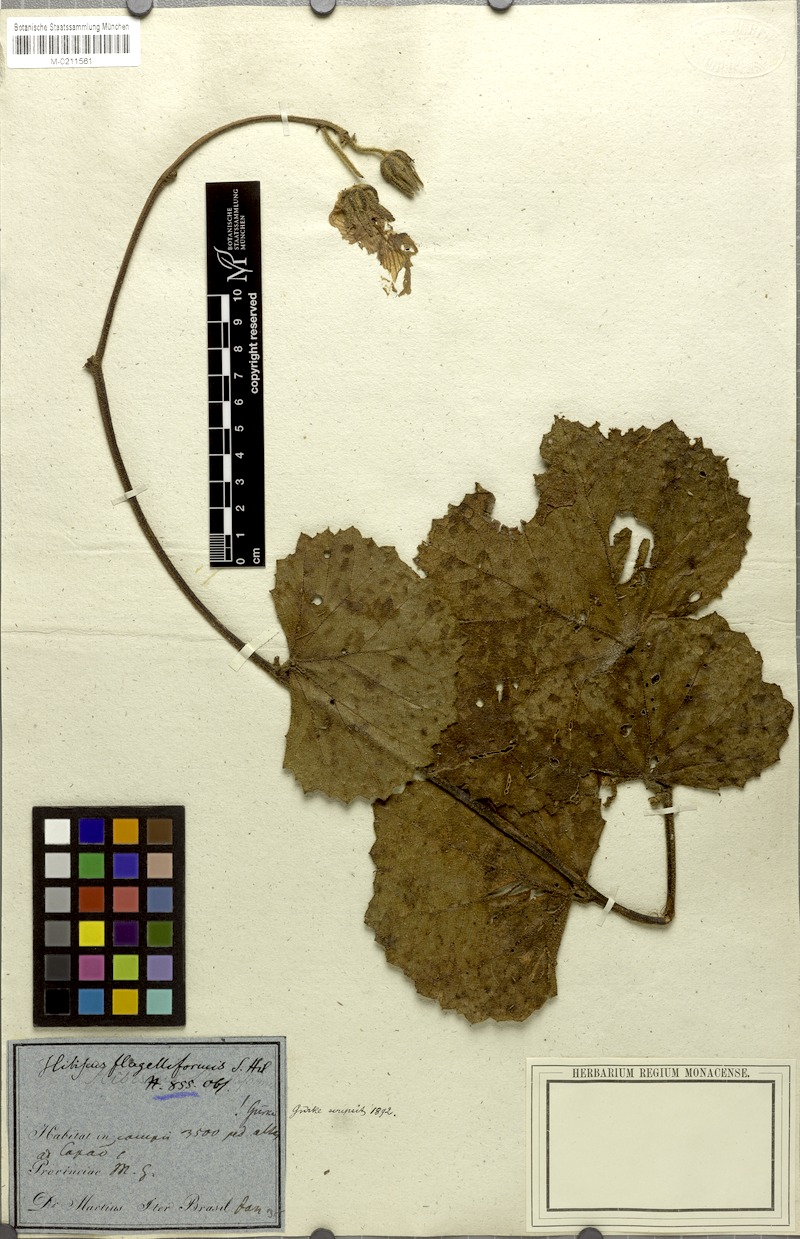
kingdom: Plantae
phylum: Tracheophyta
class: Magnoliopsida
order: Malvales
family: Malvaceae
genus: Hibiscus
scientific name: Hibiscus flagelliformis
